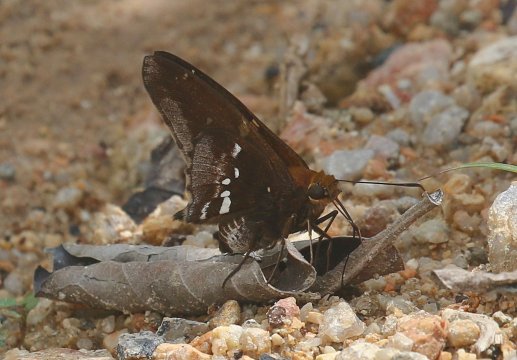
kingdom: Animalia
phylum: Arthropoda
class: Insecta
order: Lepidoptera
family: Hesperiidae
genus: Epargyreus
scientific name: Epargyreus exadeus
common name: Broken Silverdrop
